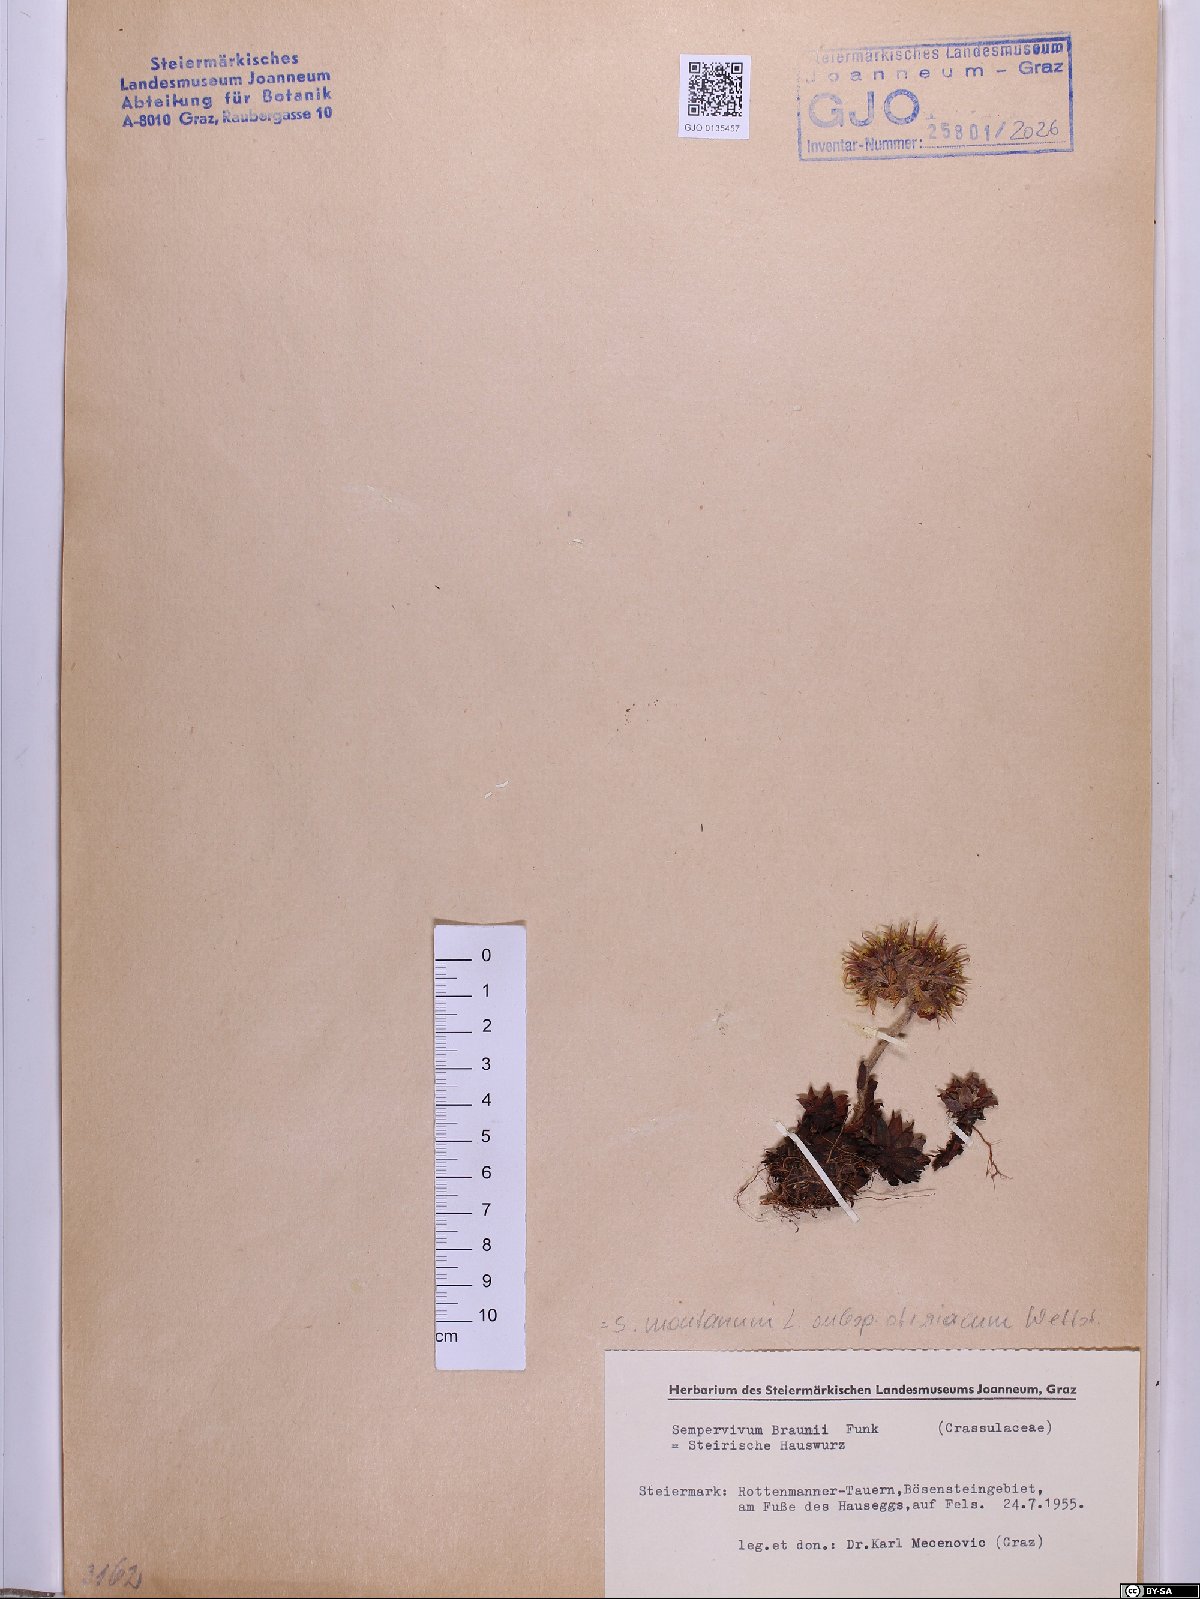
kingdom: Plantae
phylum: Tracheophyta
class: Magnoliopsida
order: Saxifragales
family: Crassulaceae
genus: Sempervivum
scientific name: Sempervivum montanum
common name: Mountain house-leek
